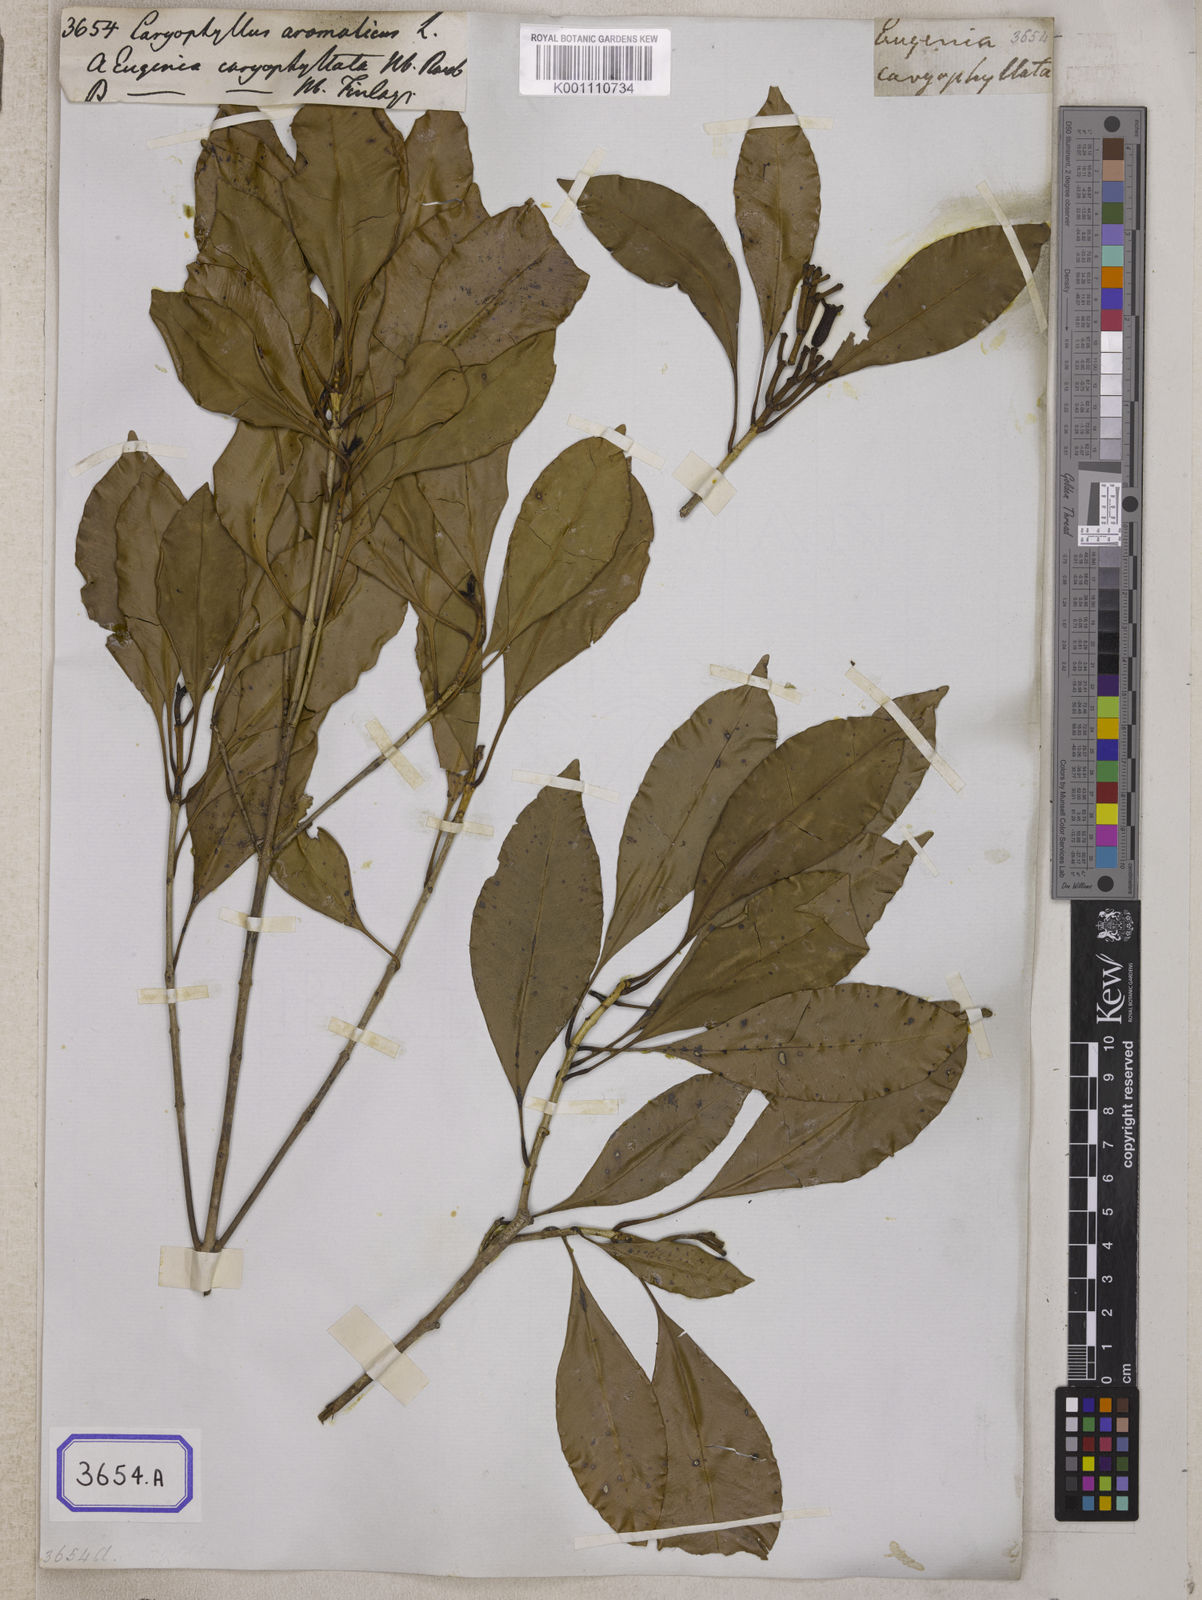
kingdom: Plantae
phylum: Tracheophyta
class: Magnoliopsida
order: Myrtales
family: Myrtaceae
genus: Syzygium
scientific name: Syzygium aromaticum
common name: Clove
